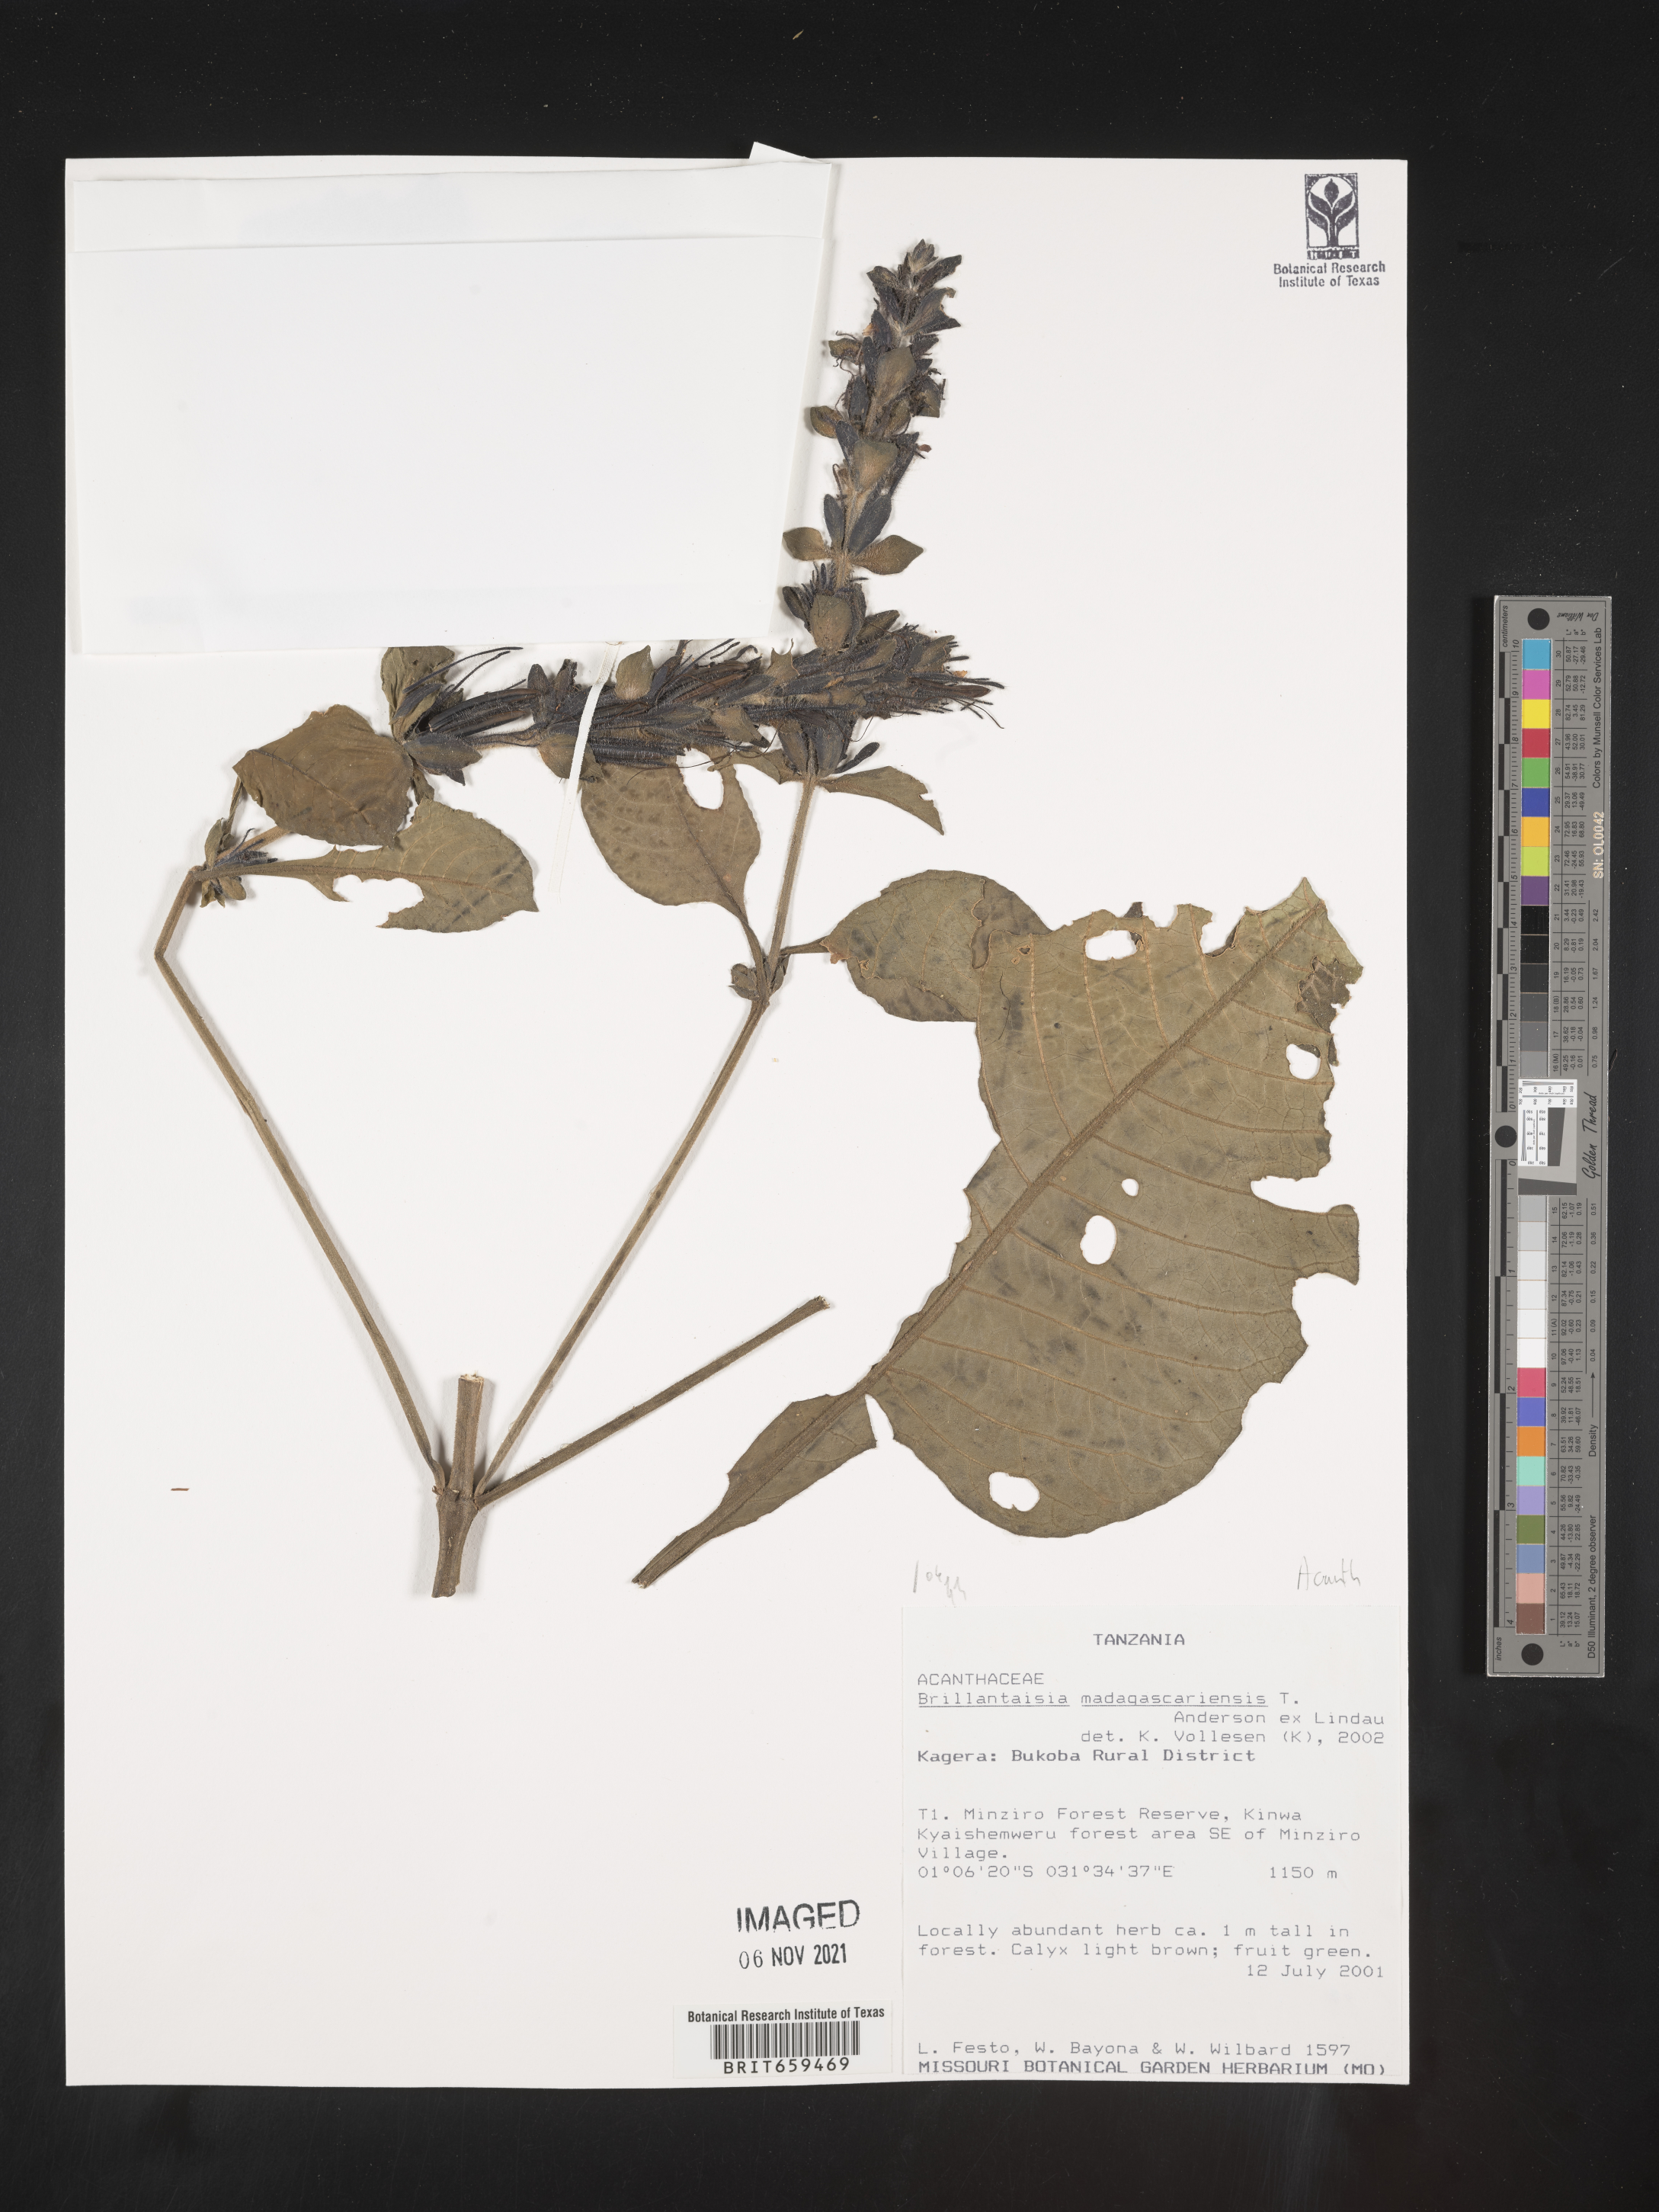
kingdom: Plantae
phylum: Tracheophyta
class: Magnoliopsida
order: Lamiales
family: Acanthaceae
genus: Brillantaisia
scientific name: Brillantaisia madagascariensis
